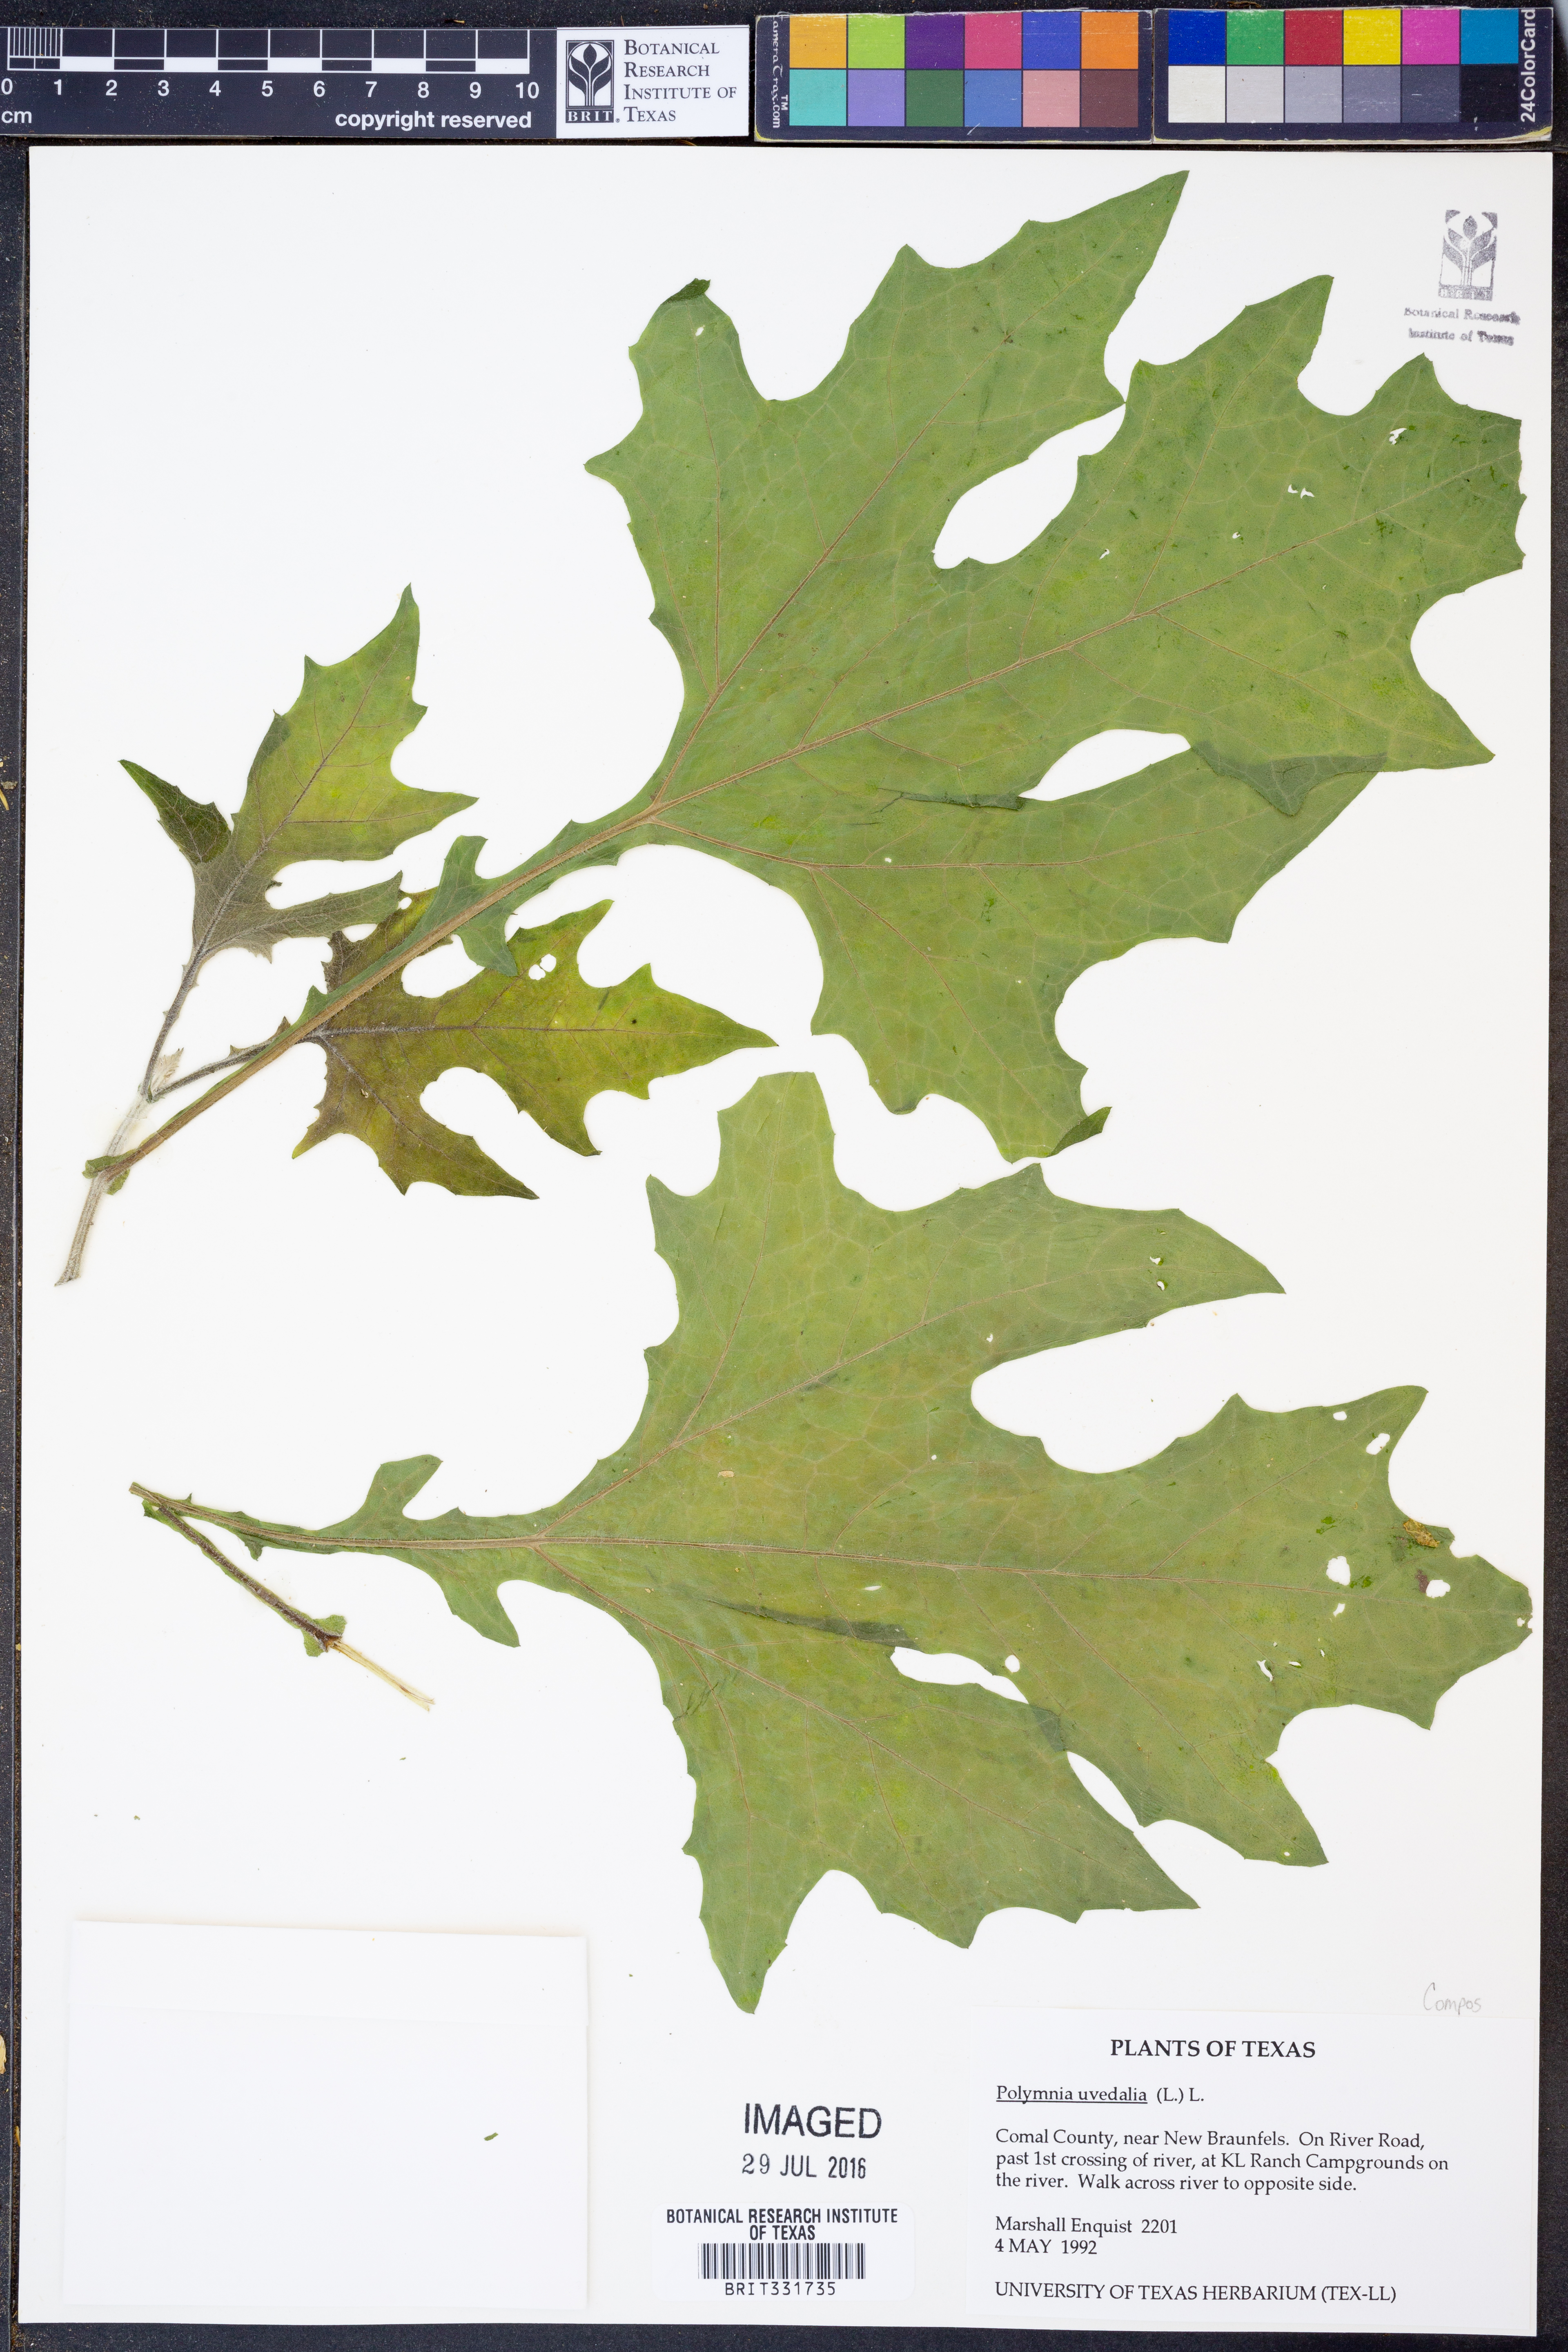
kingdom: Plantae
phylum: Tracheophyta
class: Magnoliopsida
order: Asterales
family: Asteraceae
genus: Smallanthus
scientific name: Smallanthus uvedalia
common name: Bear's-foot
